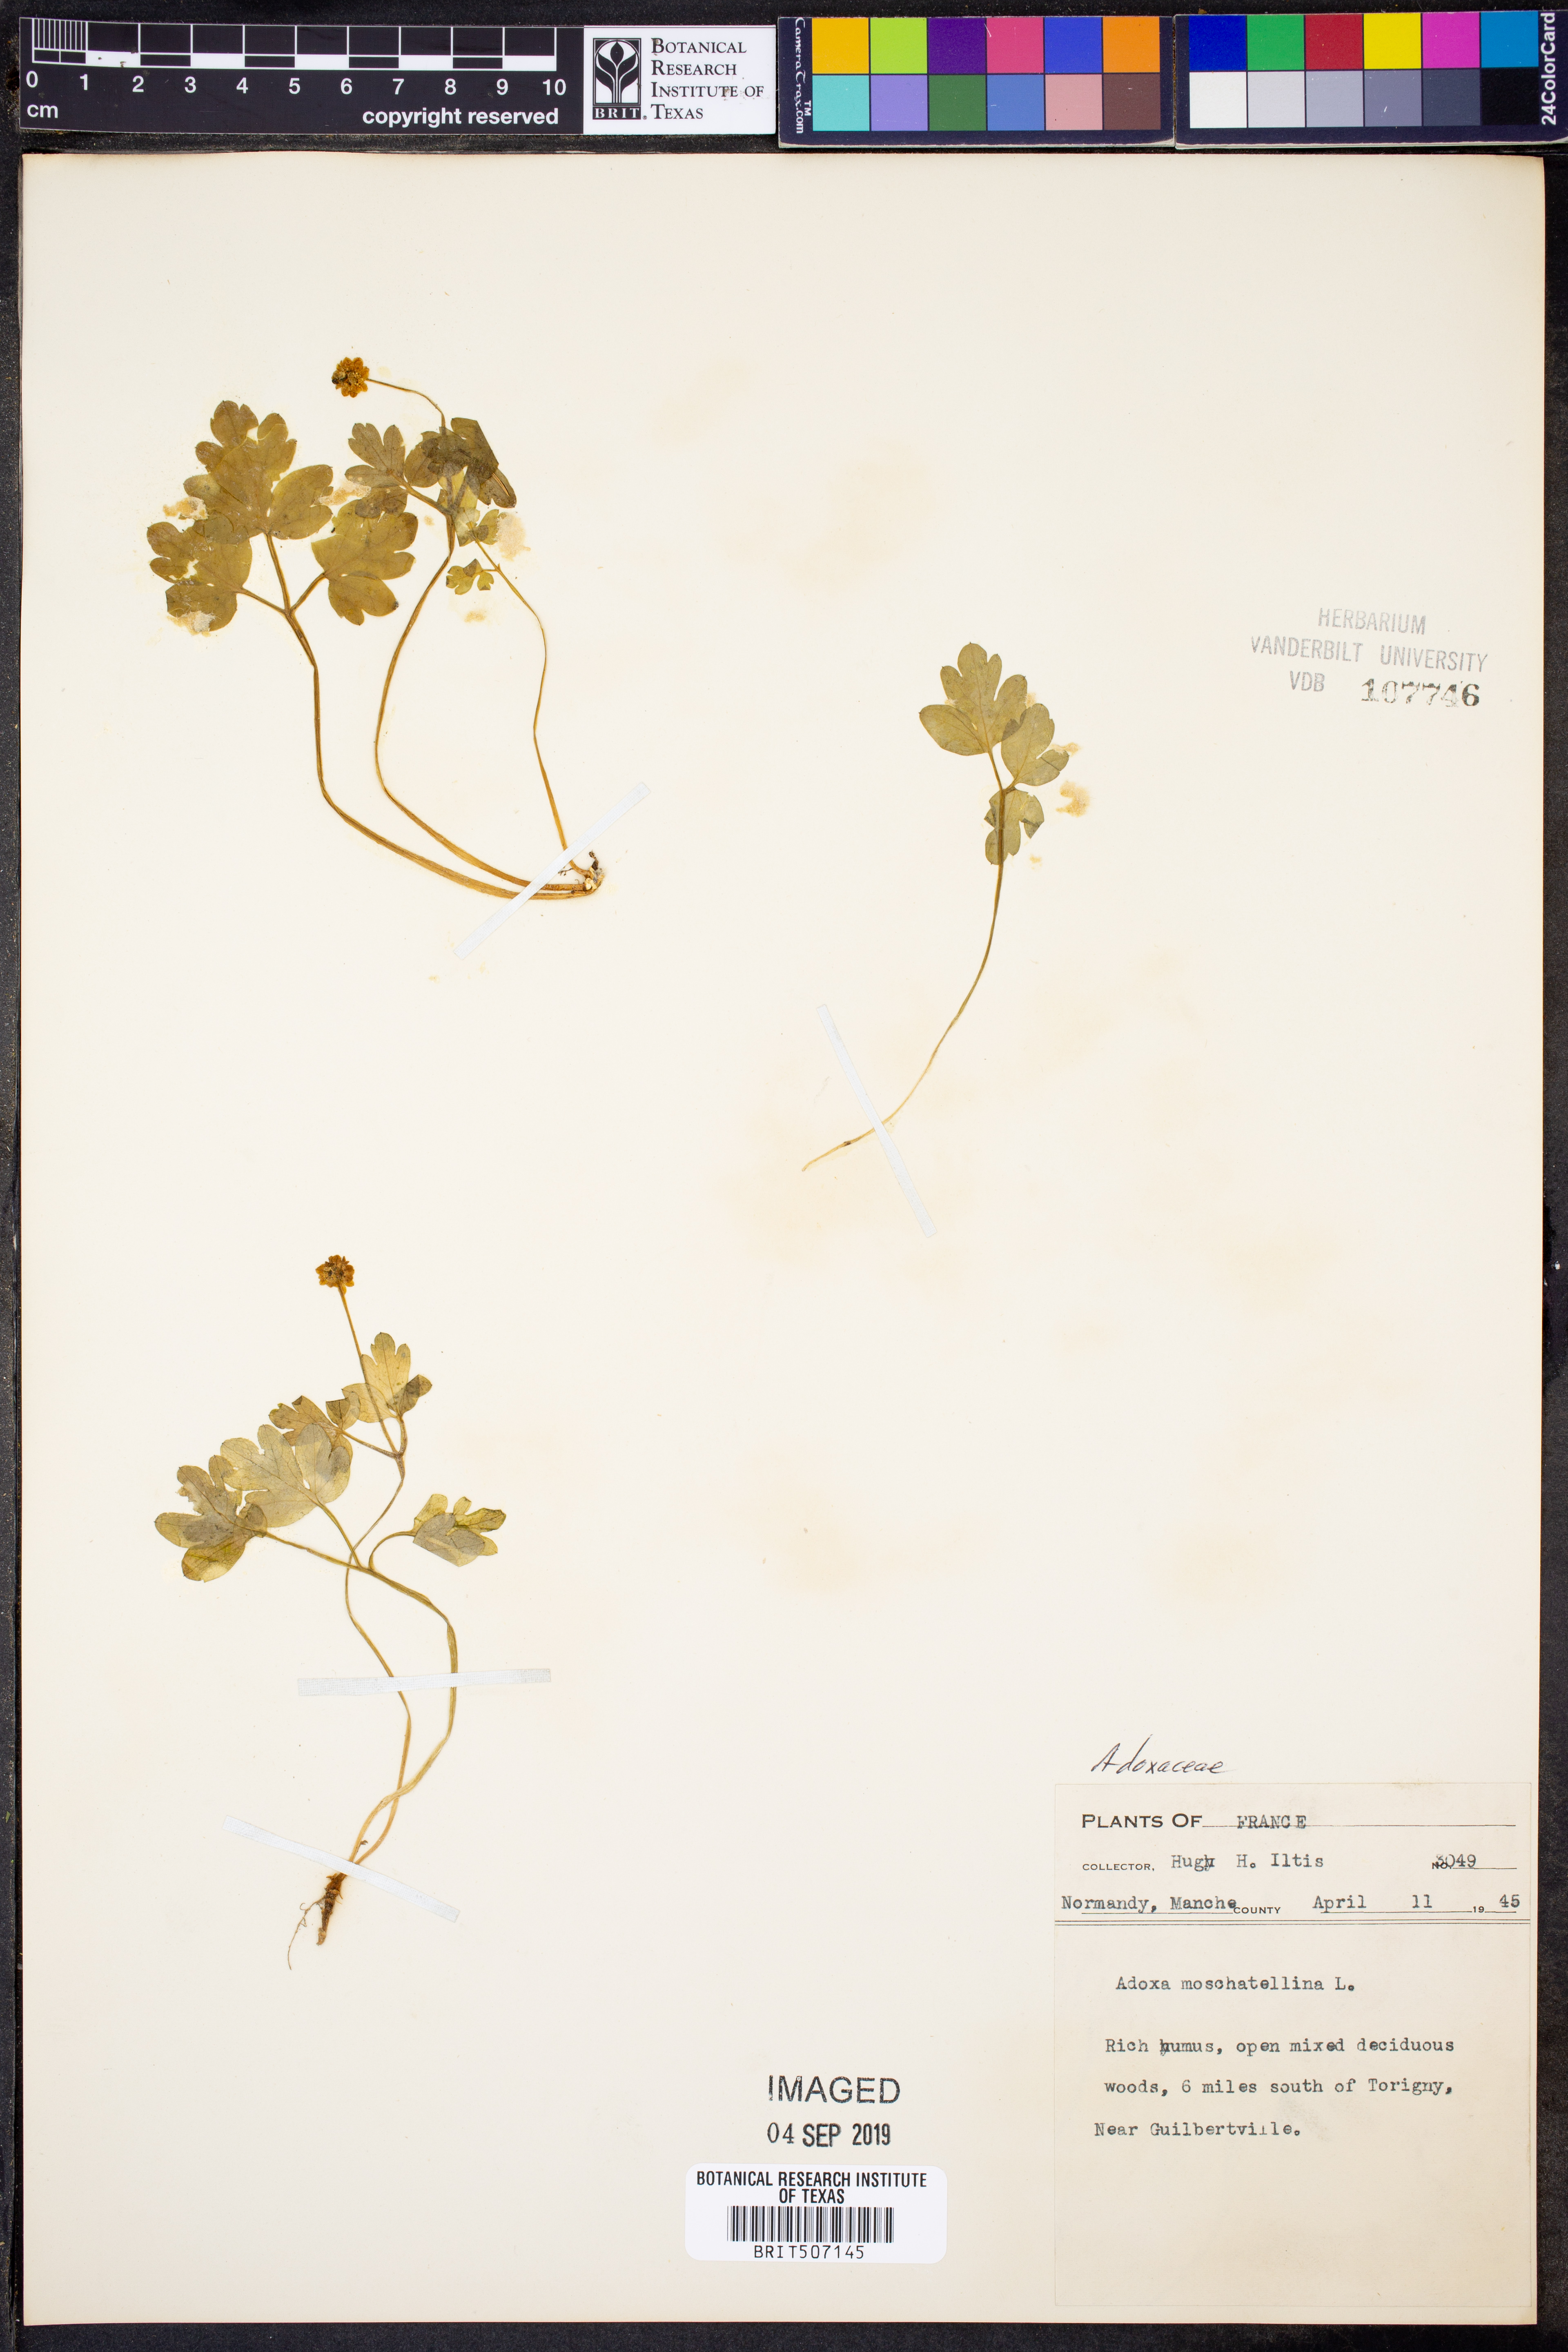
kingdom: Plantae
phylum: Tracheophyta
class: Magnoliopsida
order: Dipsacales
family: Viburnaceae
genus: Adoxa
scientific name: Adoxa moschatellina
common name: Moschatel
